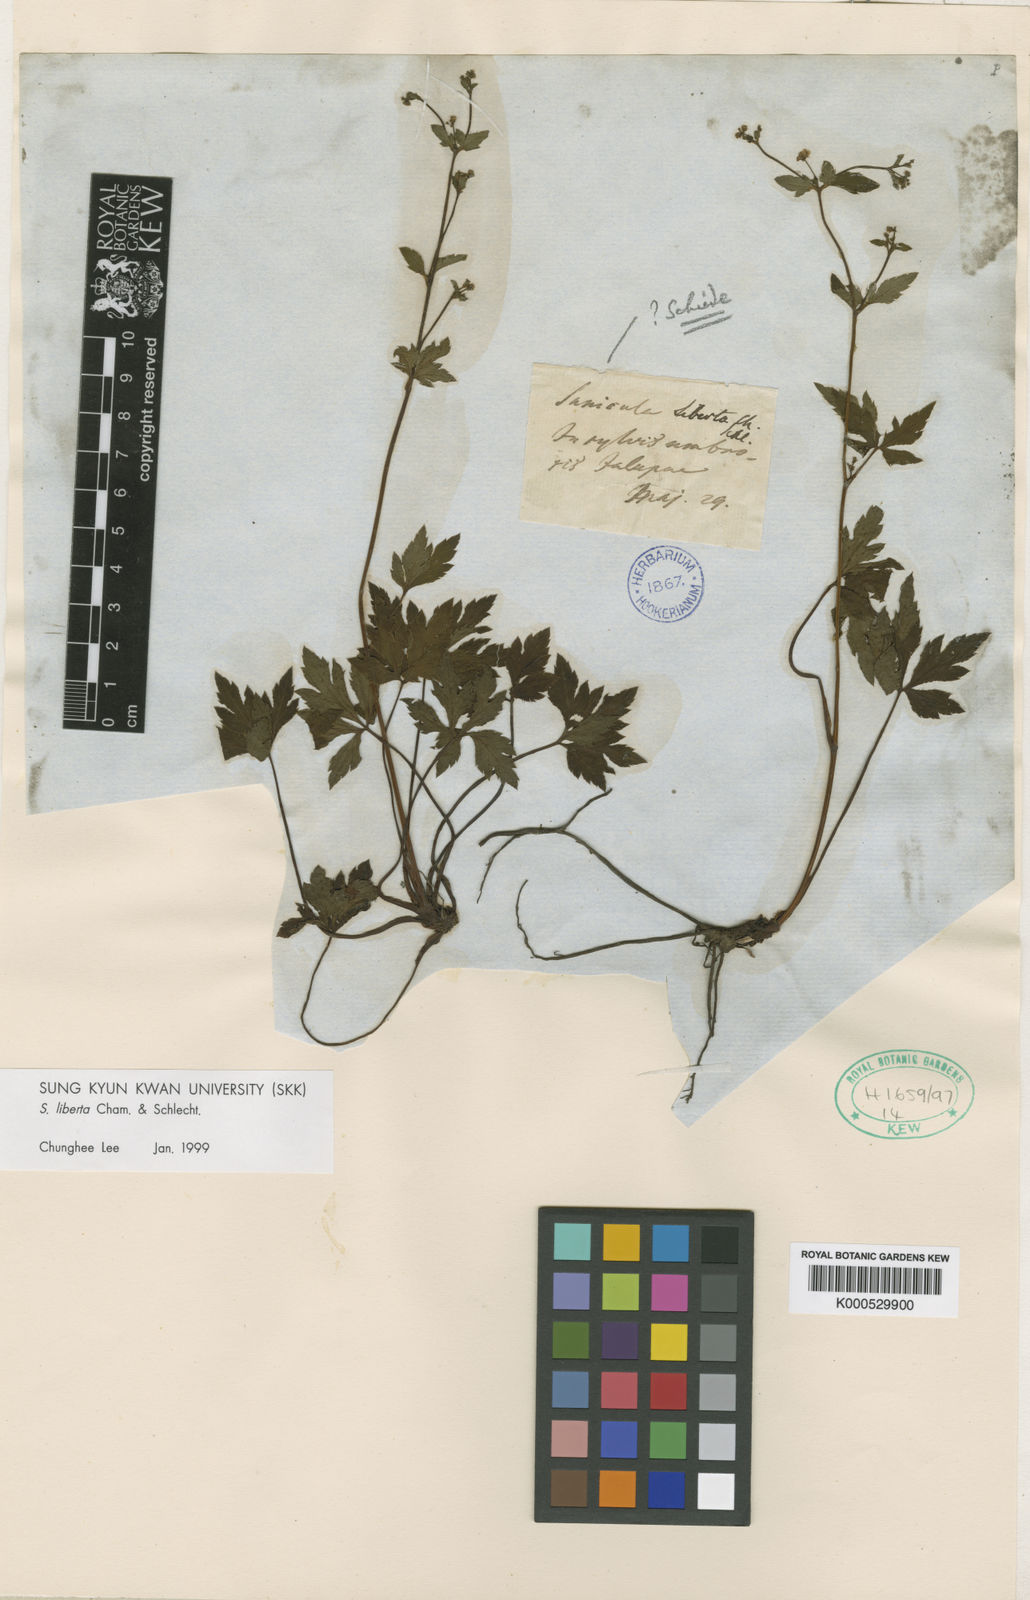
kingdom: Plantae
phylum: Tracheophyta
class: Magnoliopsida
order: Apiales
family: Apiaceae
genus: Sanicula
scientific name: Sanicula liberta
